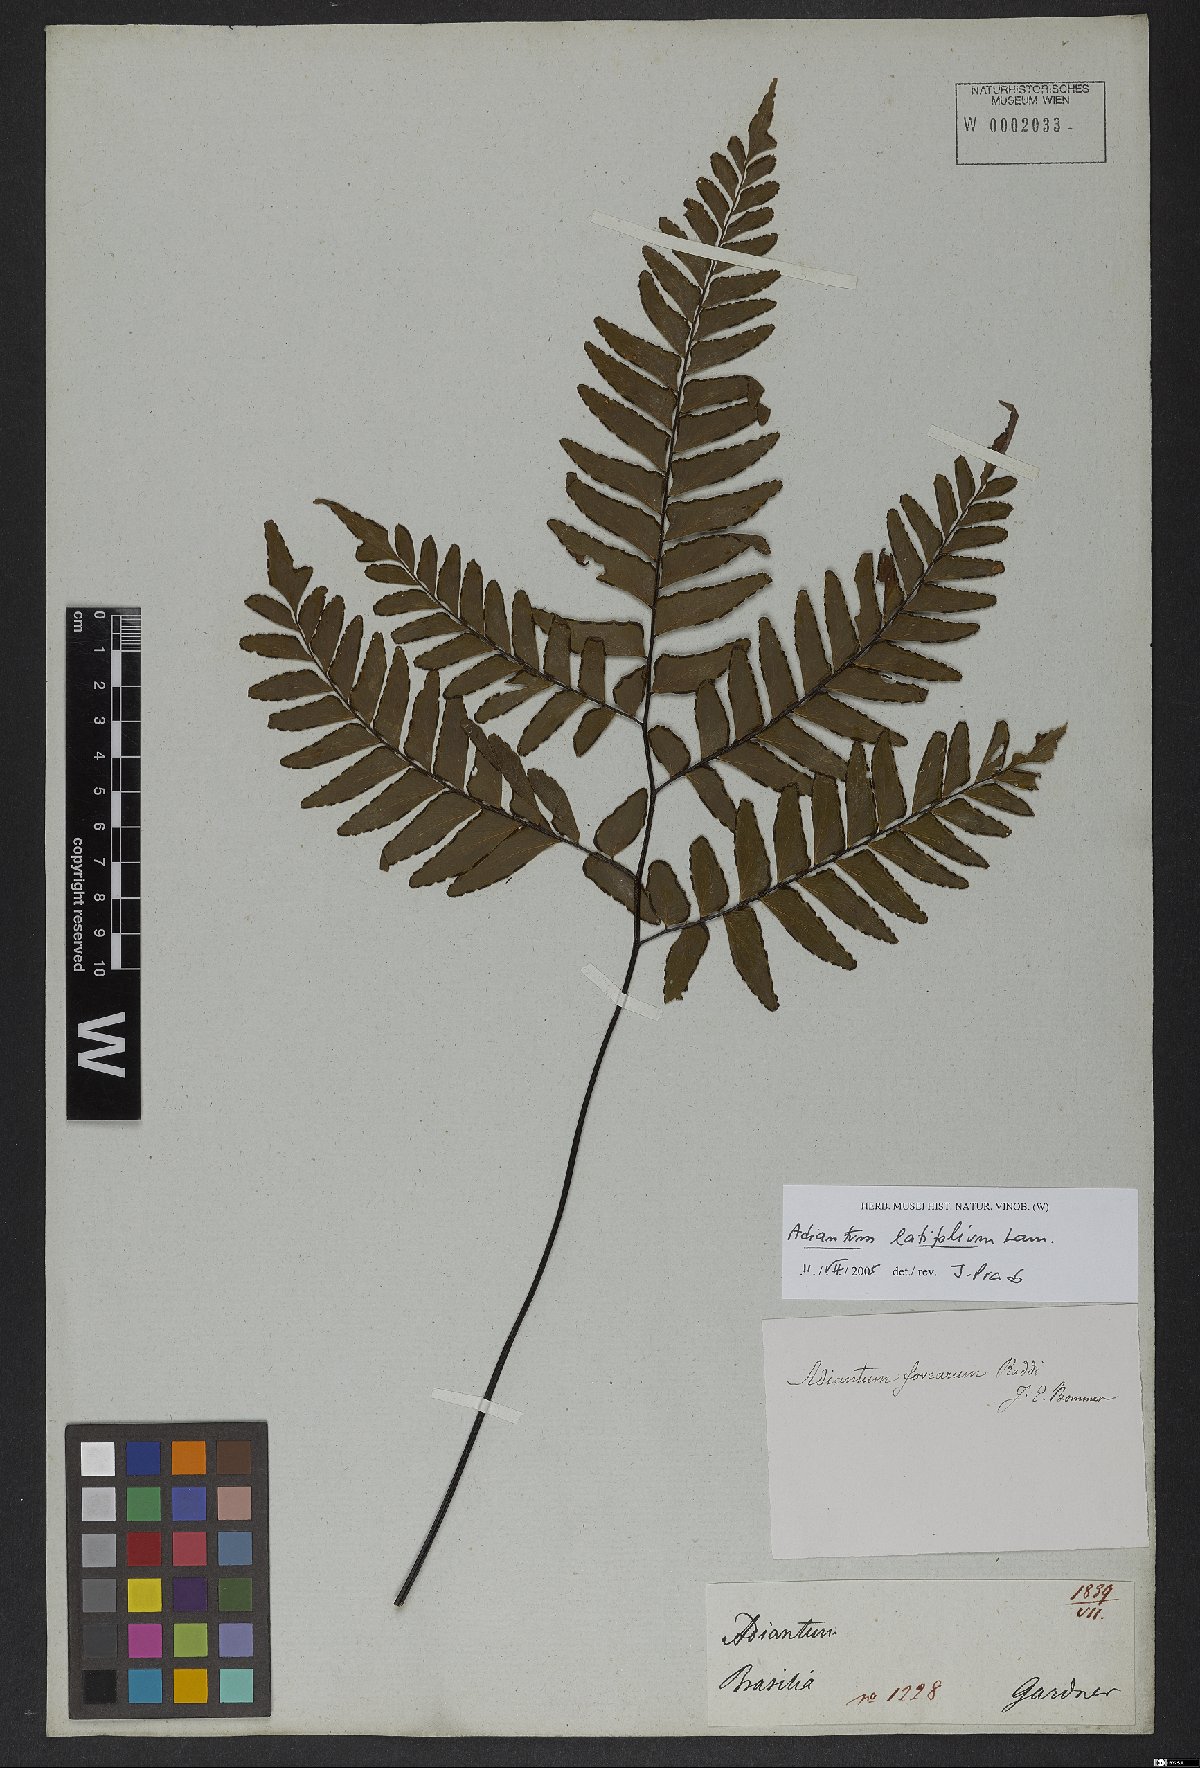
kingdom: Plantae
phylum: Tracheophyta
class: Polypodiopsida
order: Polypodiales
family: Pteridaceae
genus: Adiantum
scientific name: Adiantum latifolium
